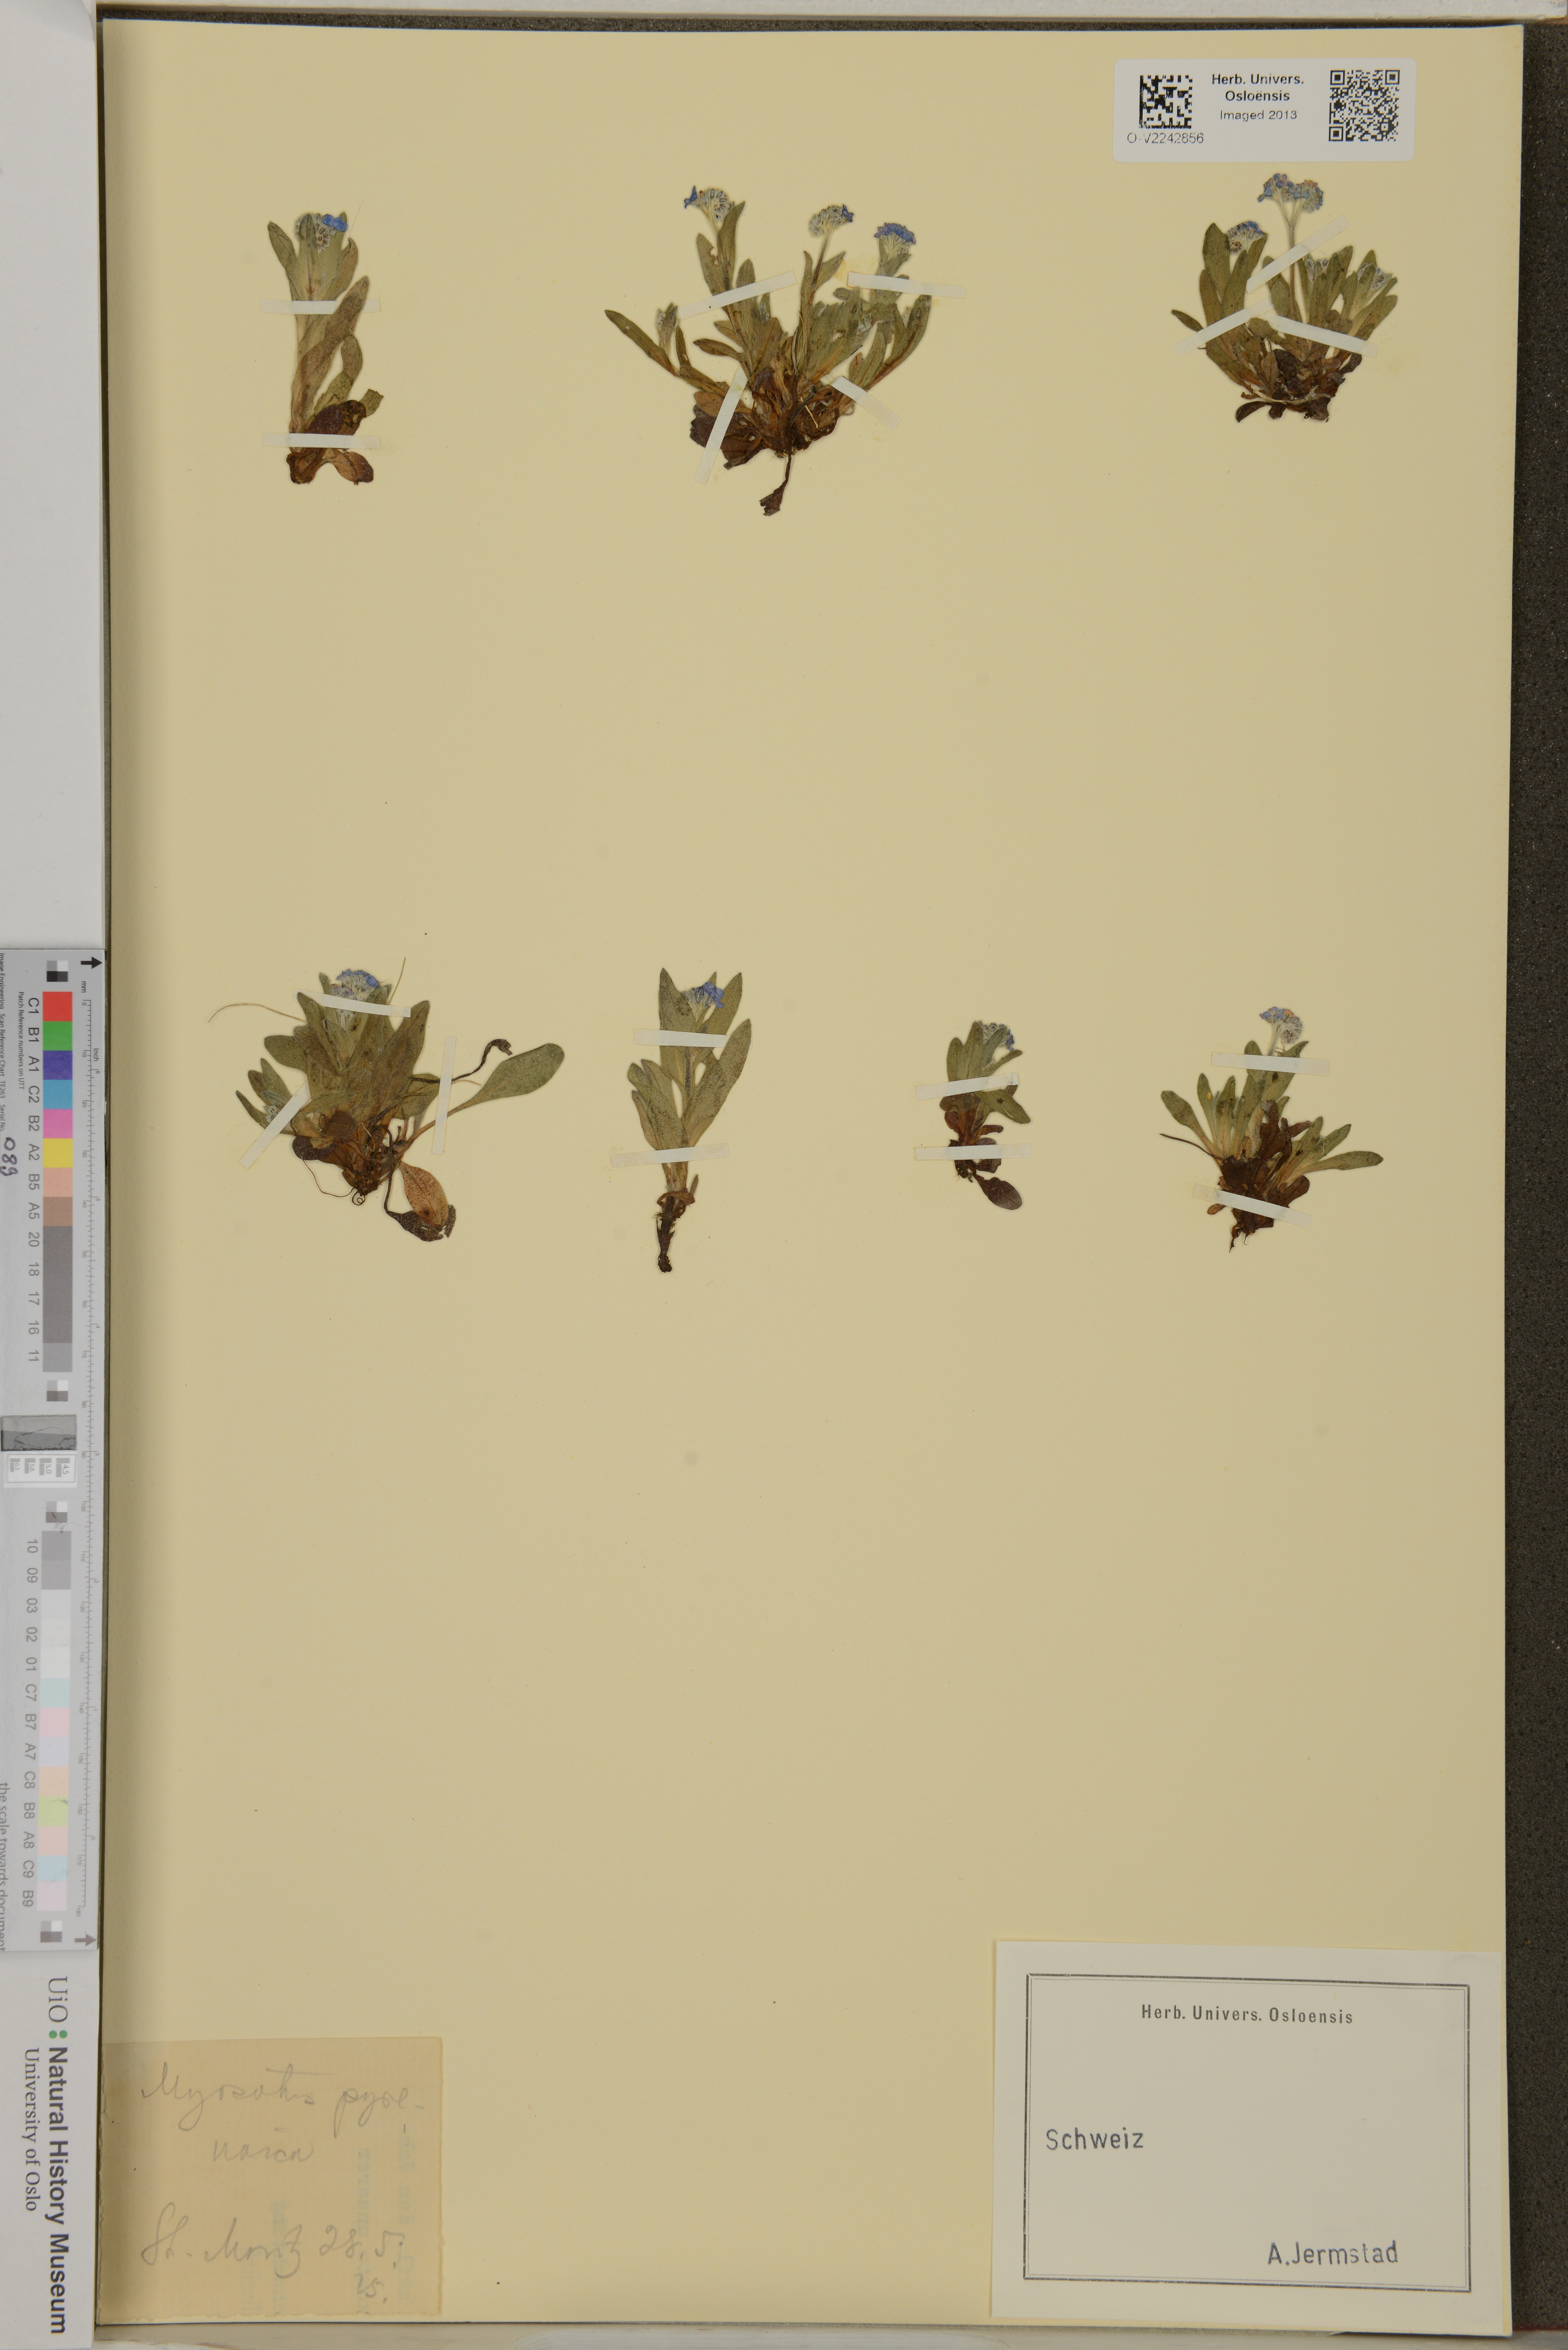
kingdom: Plantae
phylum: Tracheophyta
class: Magnoliopsida
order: Boraginales
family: Boraginaceae
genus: Myosotis
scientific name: Myosotis alpestris
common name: Alpine forget-me-not
